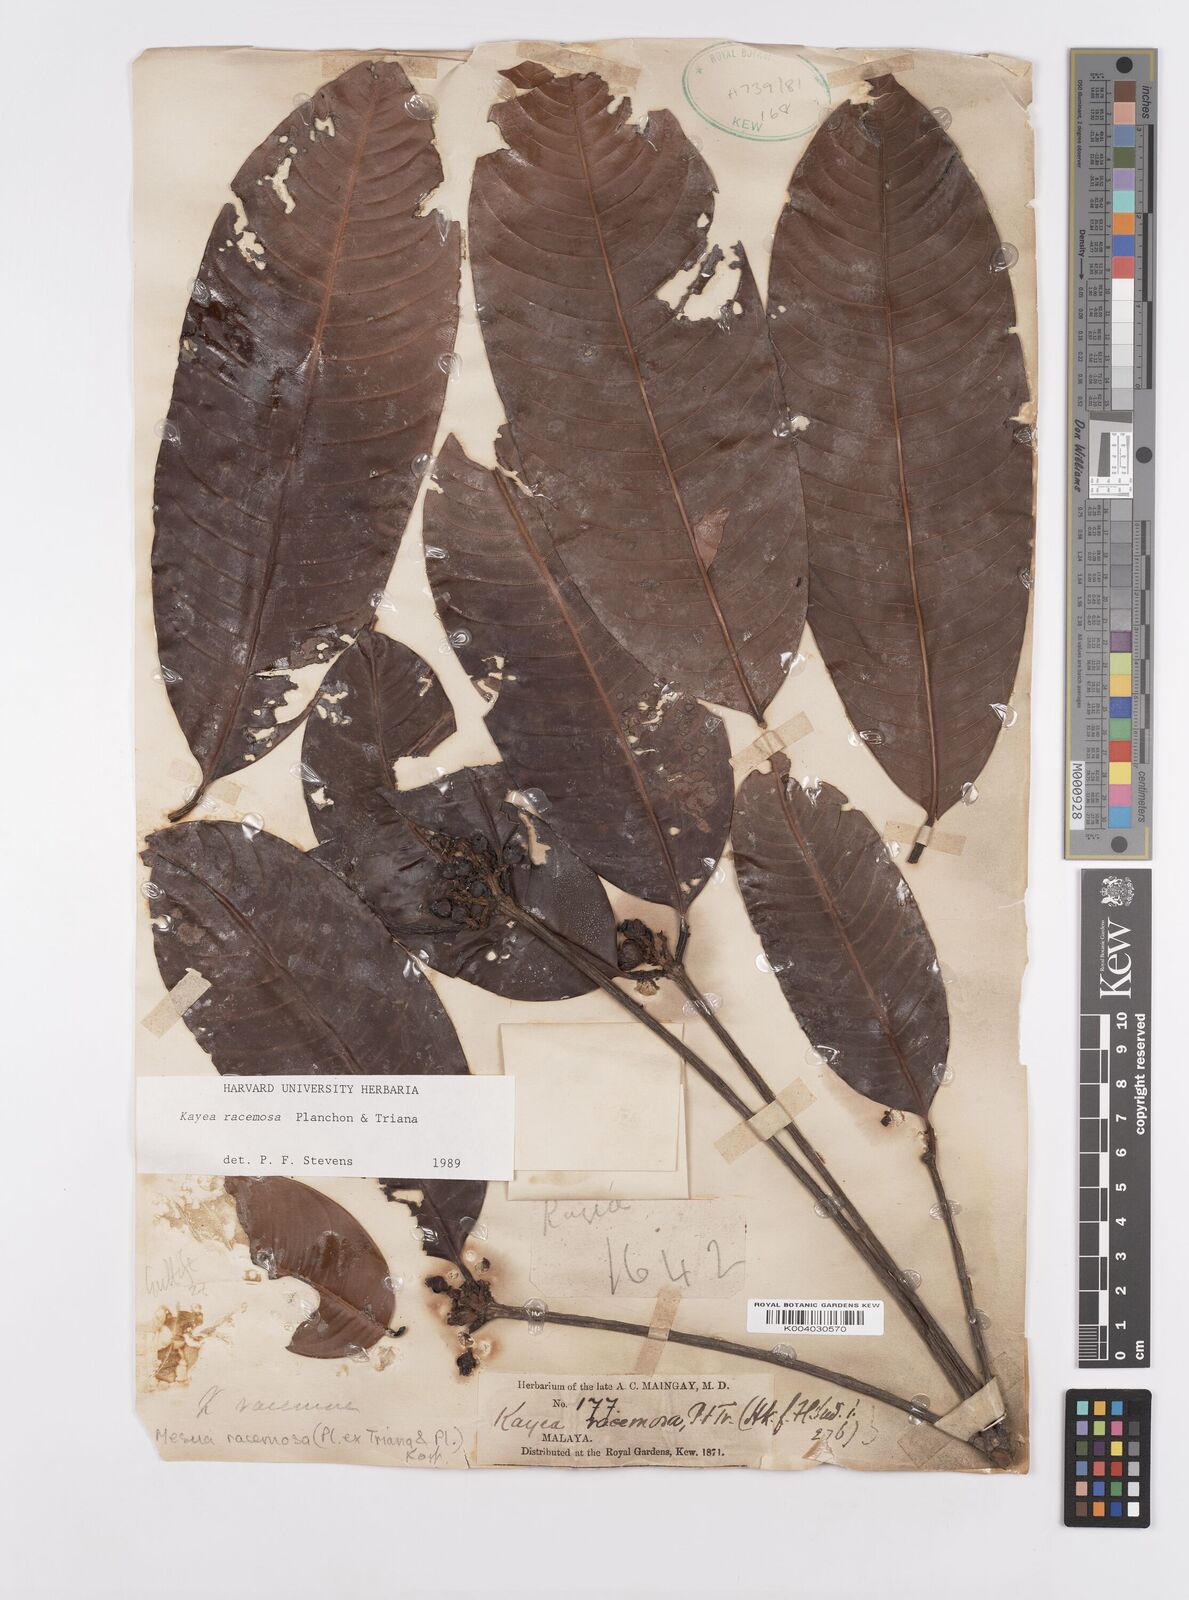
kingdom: Plantae
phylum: Tracheophyta
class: Magnoliopsida
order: Malpighiales
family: Calophyllaceae
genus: Kayea
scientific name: Kayea racemosa
